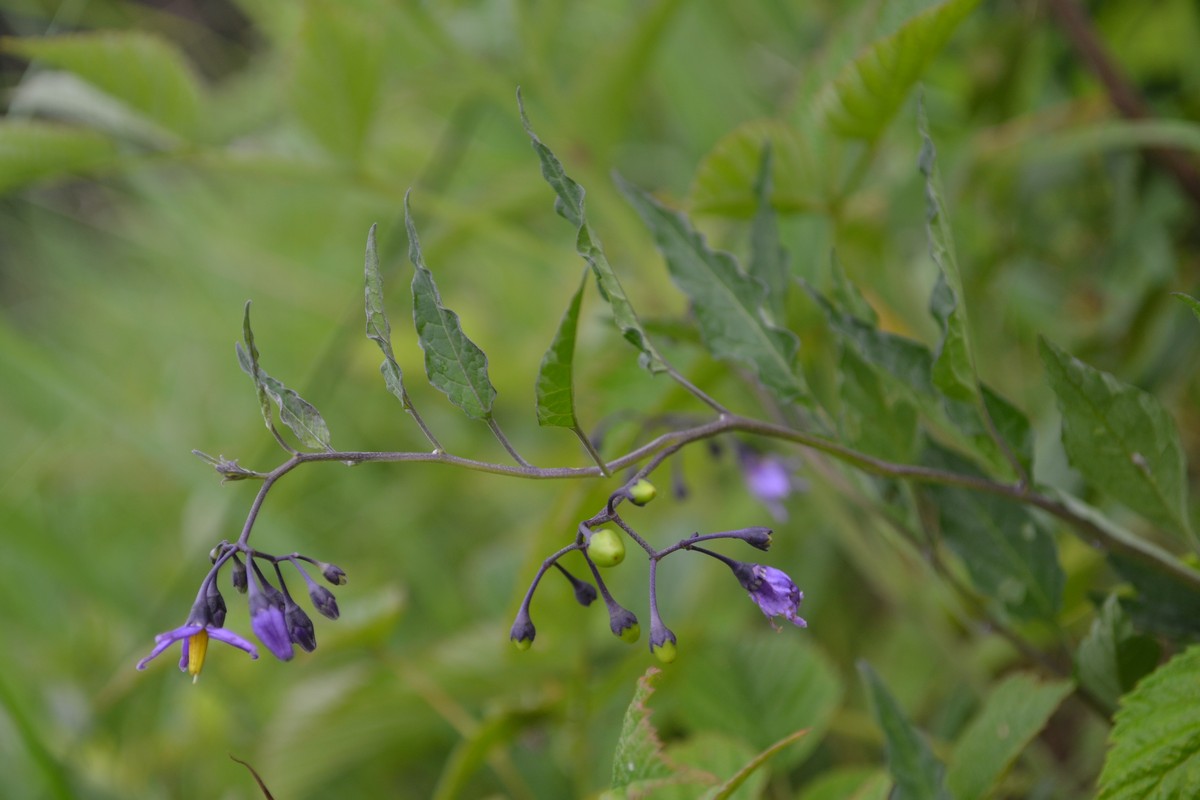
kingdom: Plantae
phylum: Tracheophyta
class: Magnoliopsida
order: Solanales
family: Solanaceae
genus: Solanum
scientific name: Solanum dulcamara
